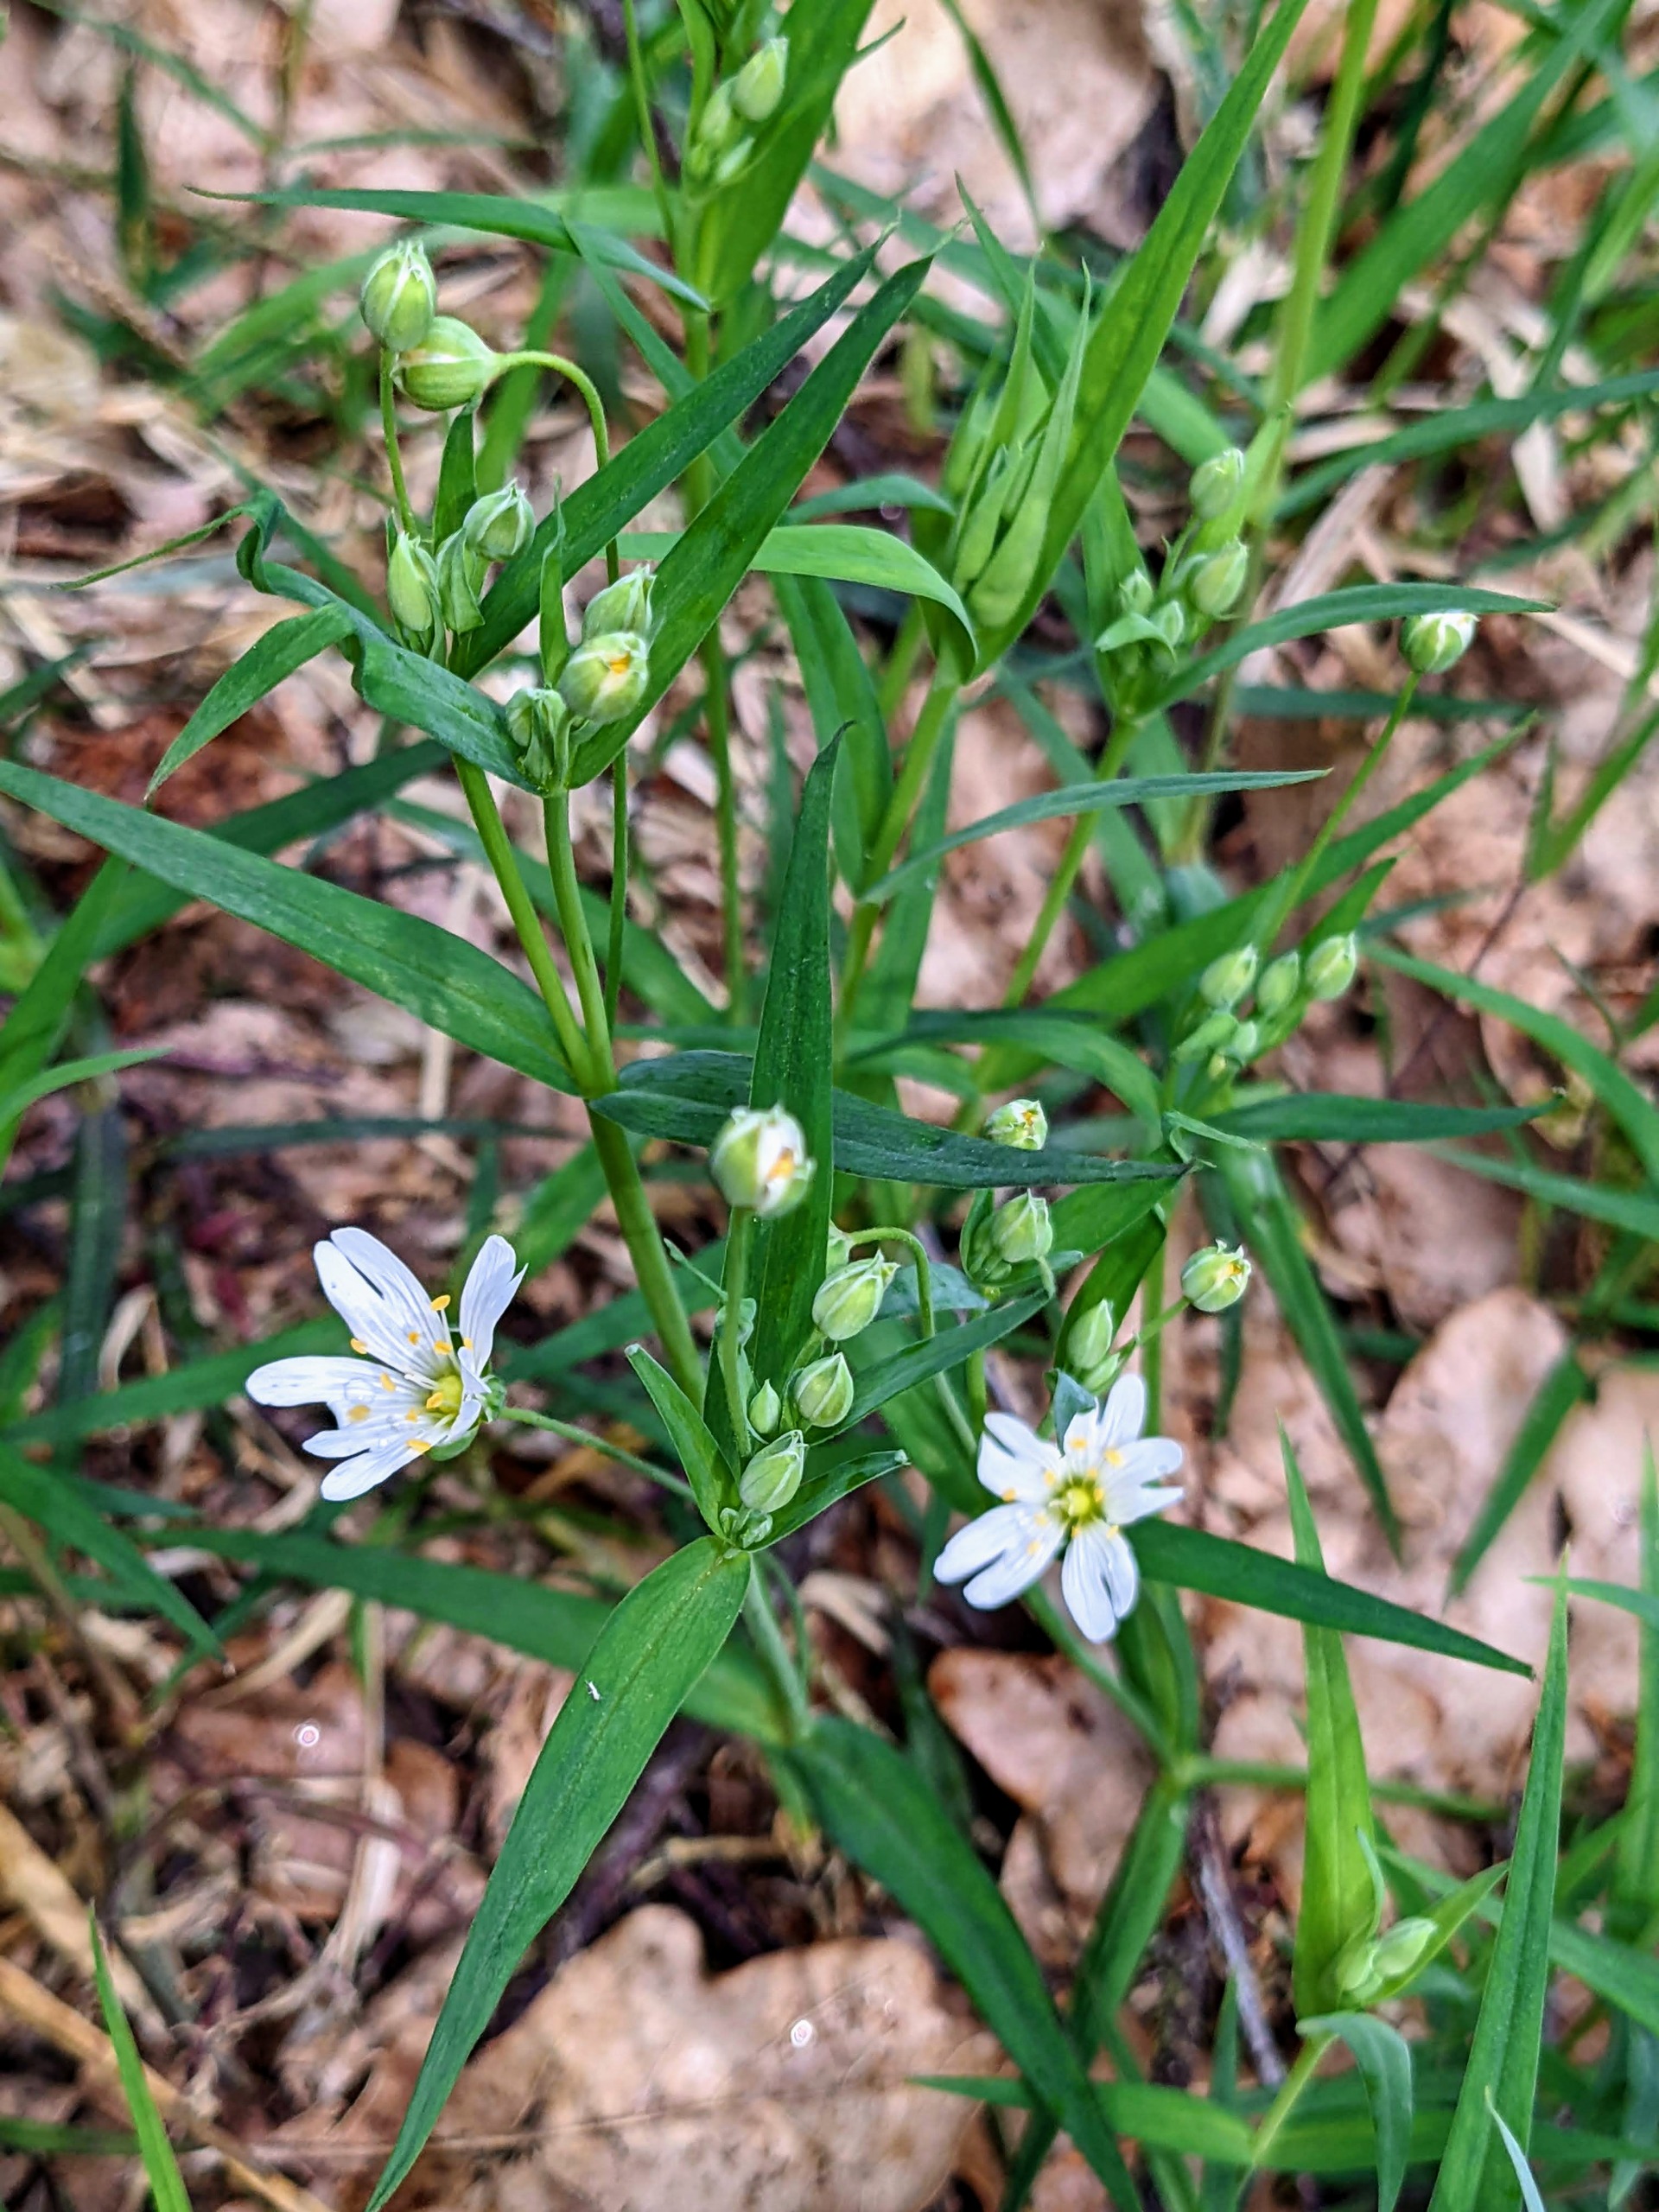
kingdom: Plantae
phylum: Tracheophyta
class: Magnoliopsida
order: Caryophyllales
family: Caryophyllaceae
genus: Rabelera
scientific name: Rabelera holostea
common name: Stor fladstjerne
